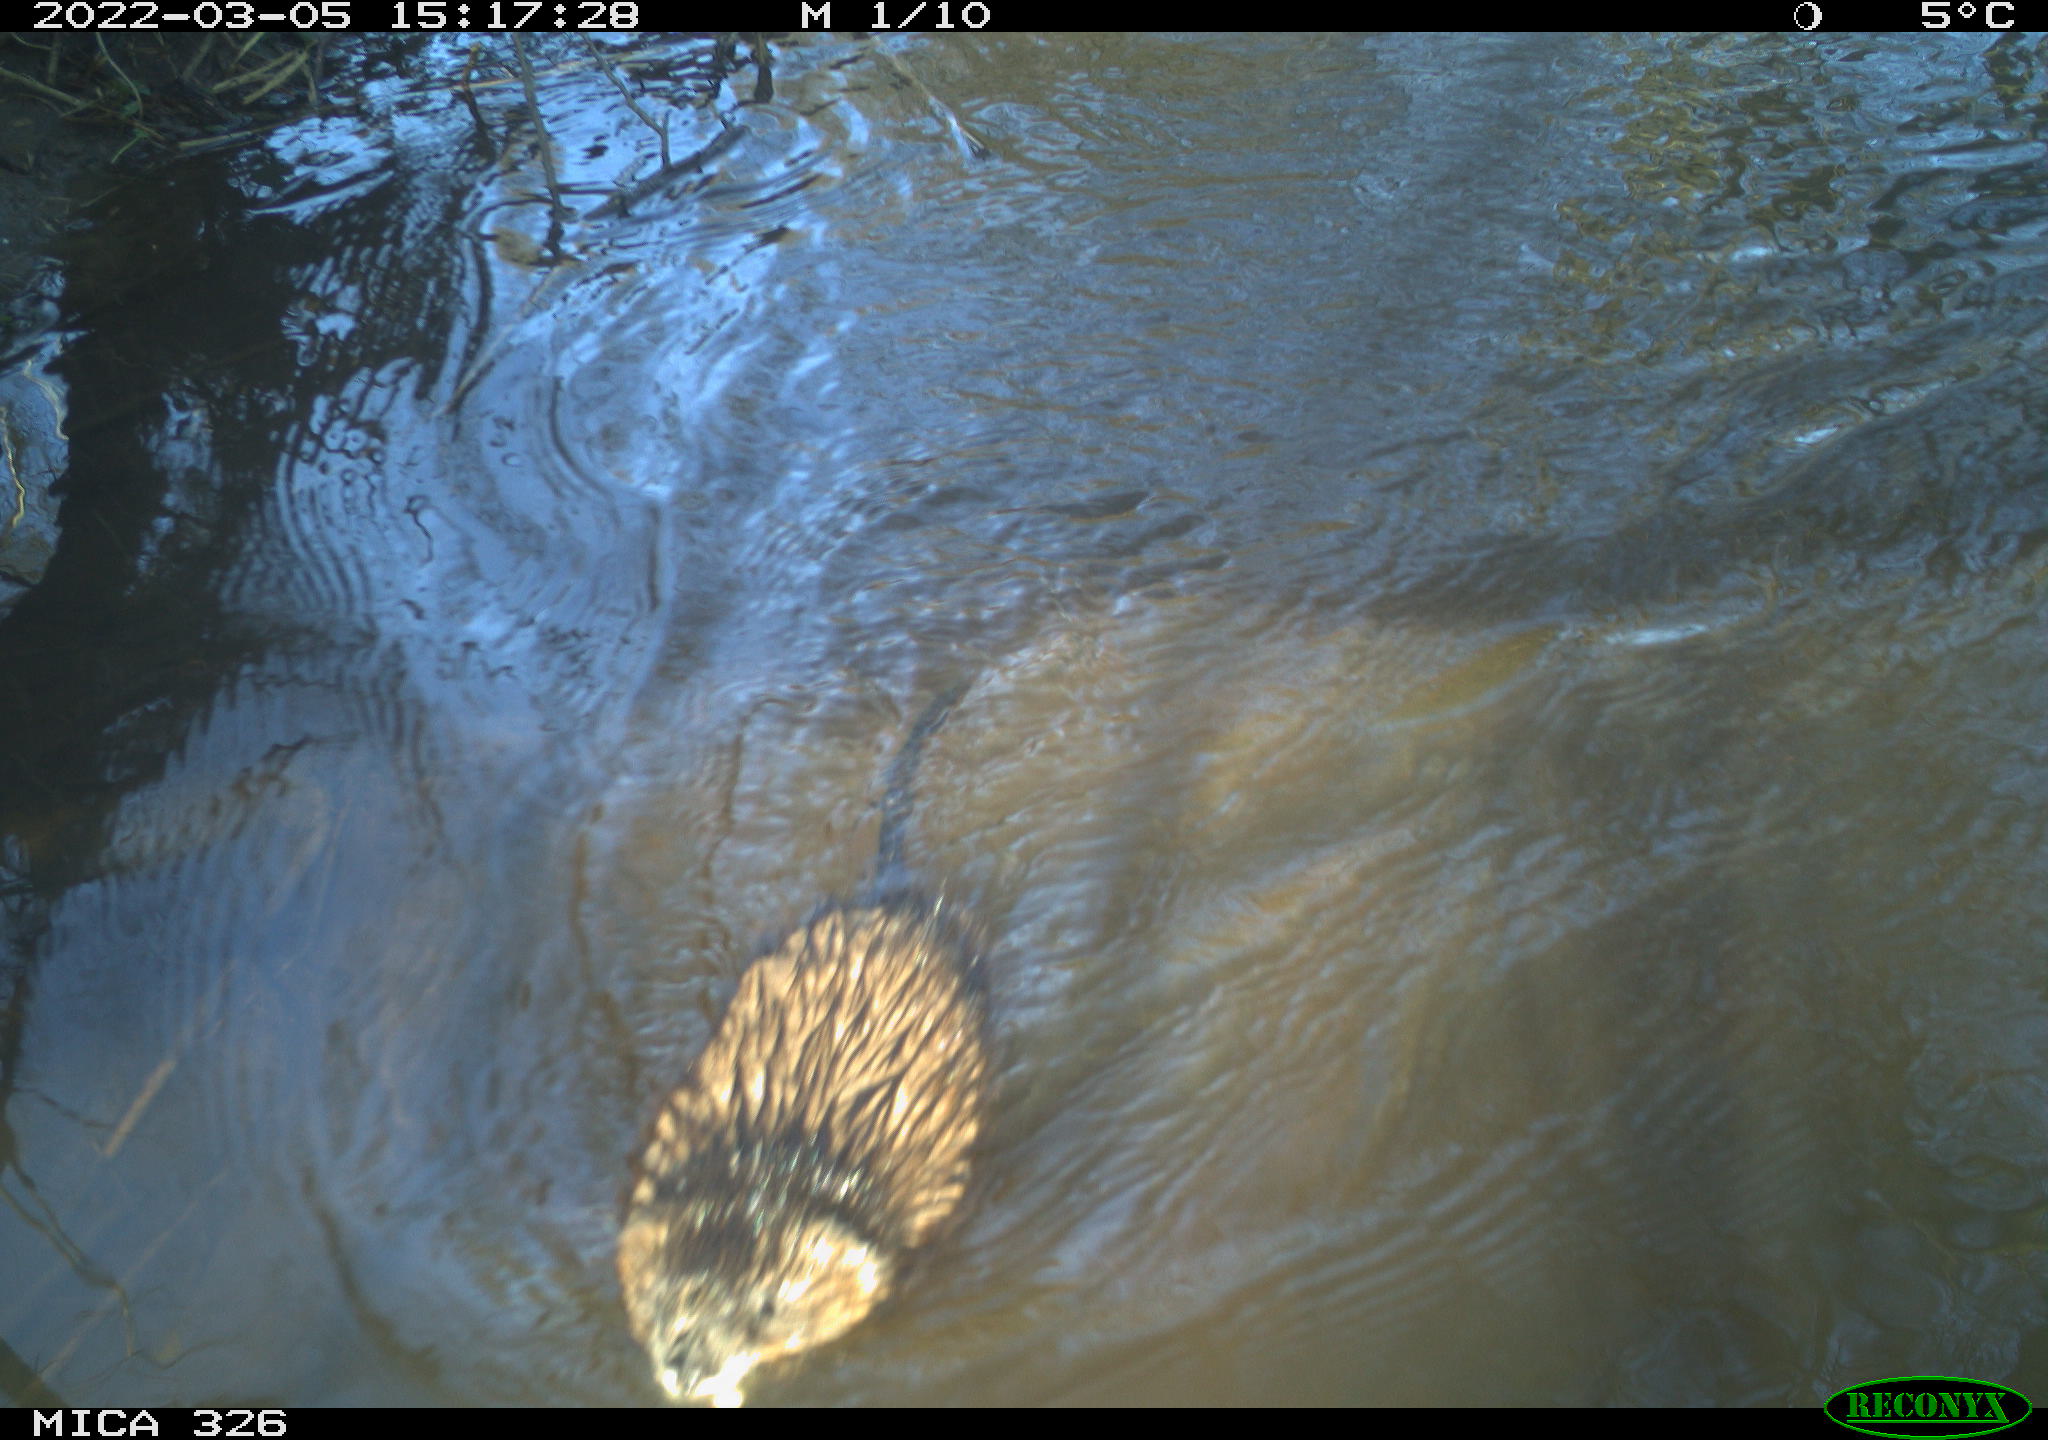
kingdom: Animalia
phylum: Chordata
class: Mammalia
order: Rodentia
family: Cricetidae
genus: Ondatra
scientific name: Ondatra zibethicus
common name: Muskrat
